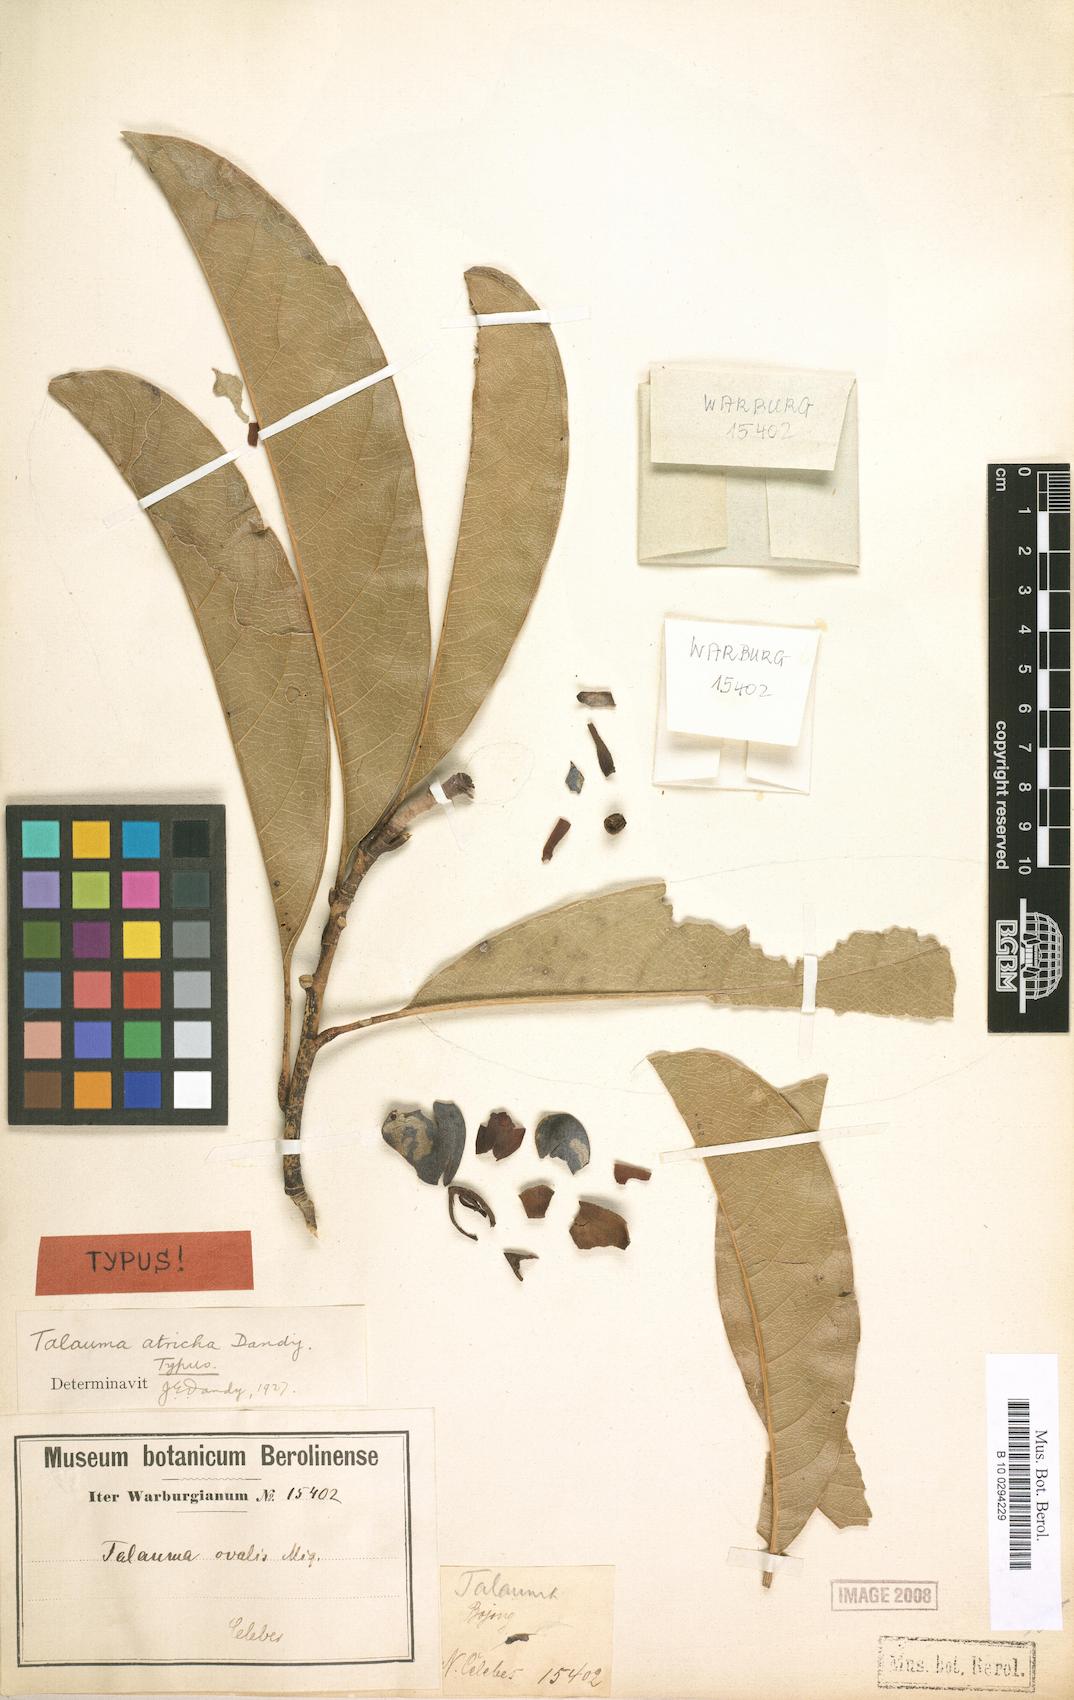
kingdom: Plantae
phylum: Tracheophyta
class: Magnoliopsida
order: Magnoliales
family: Magnoliaceae
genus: Magnolia
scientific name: Magnolia sumatrana
